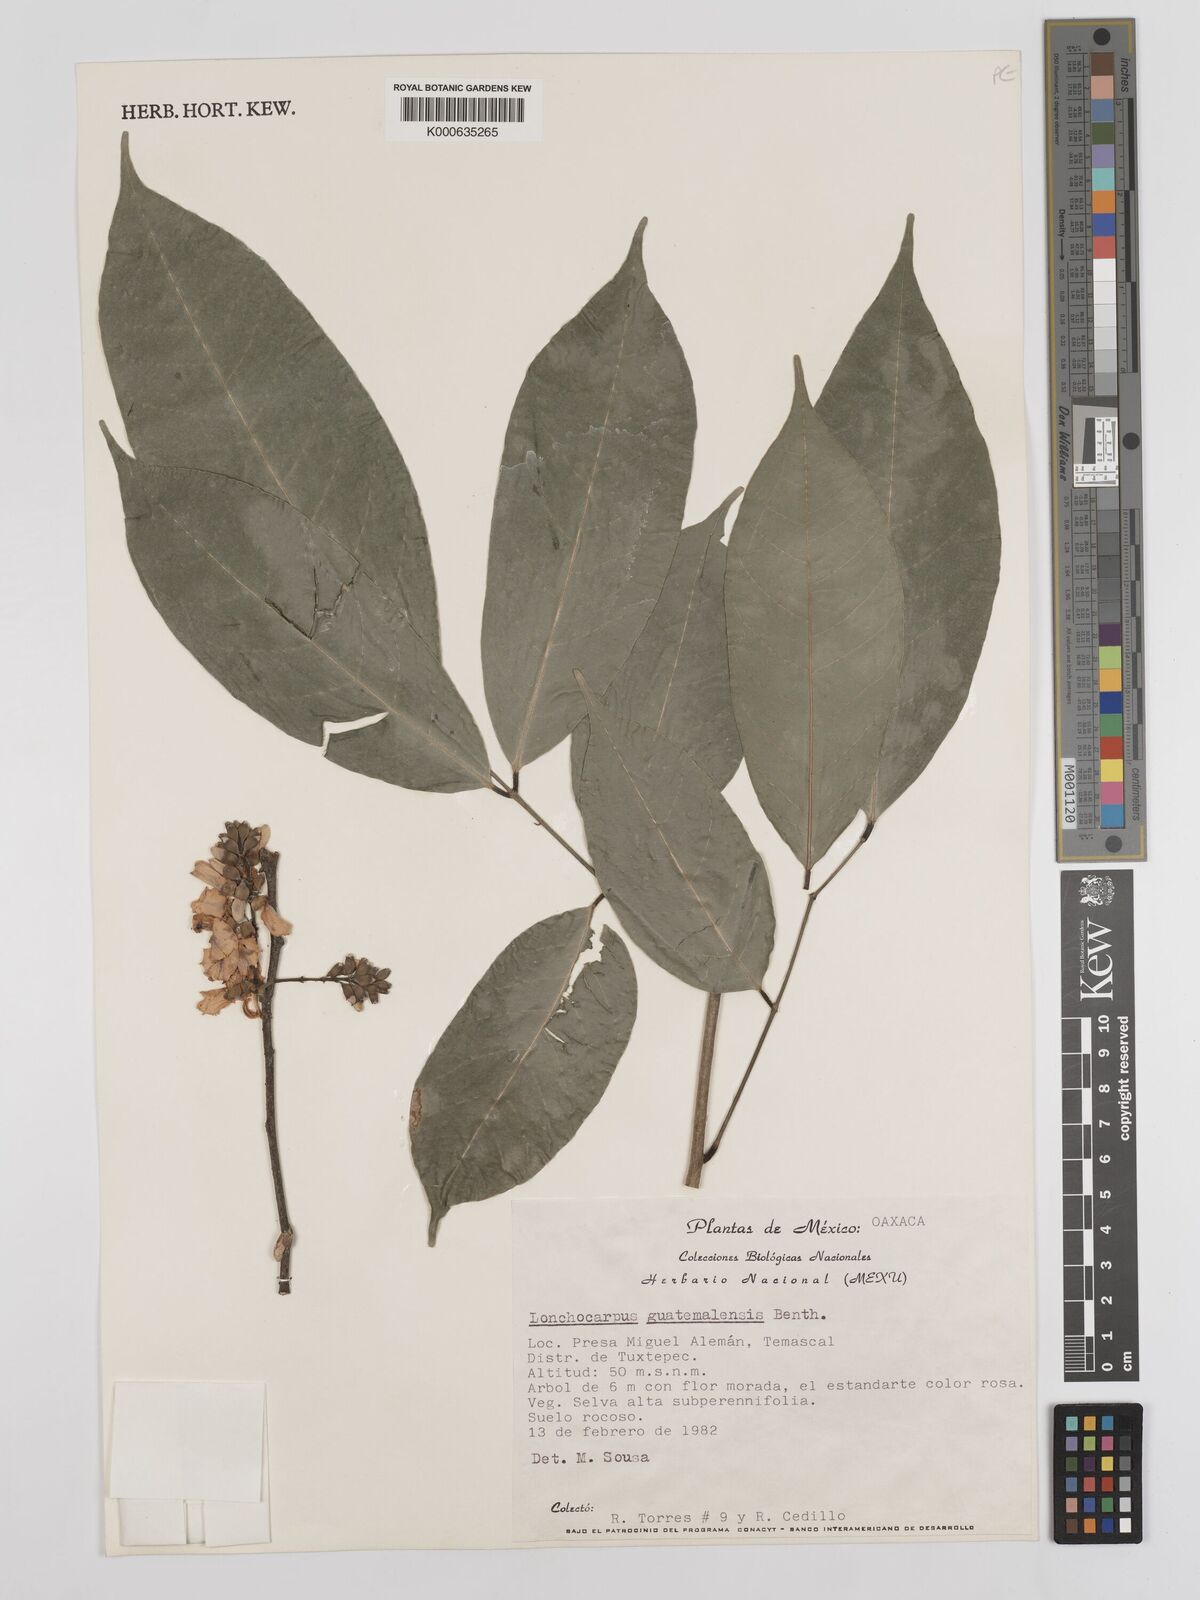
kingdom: Plantae
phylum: Tracheophyta
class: Magnoliopsida
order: Fabales
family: Fabaceae
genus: Lonchocarpus
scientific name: Lonchocarpus guatemalensis
